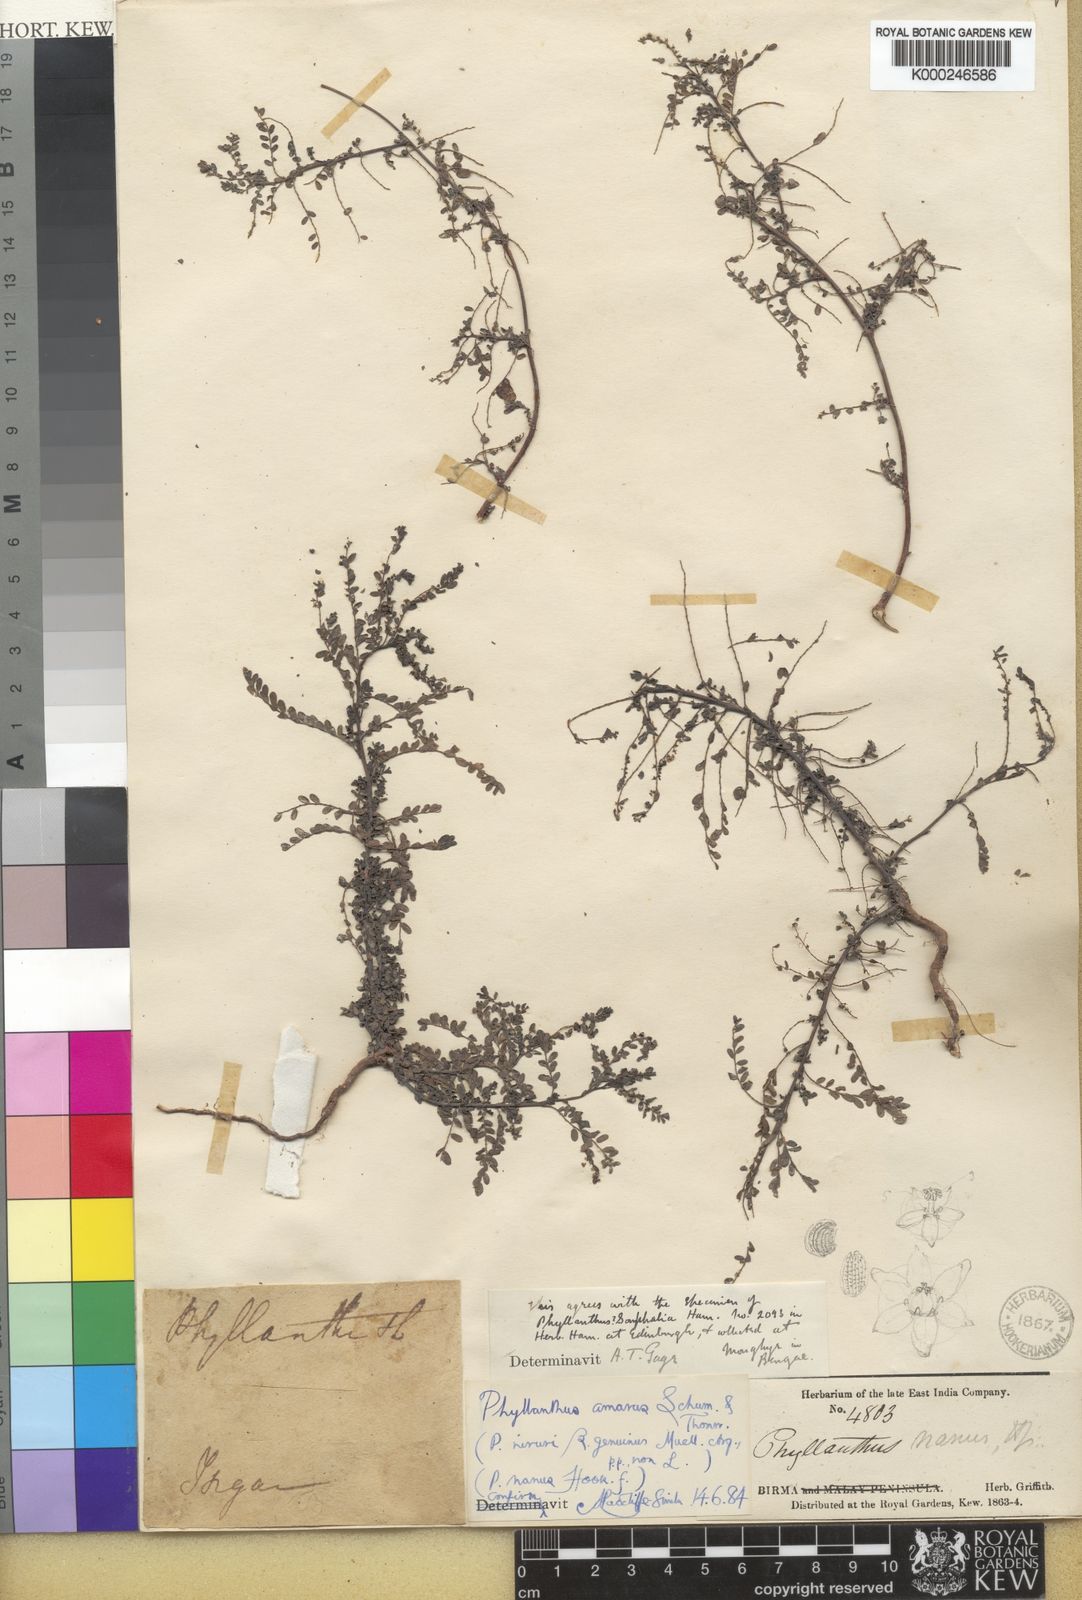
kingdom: Plantae
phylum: Tracheophyta
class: Magnoliopsida
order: Malpighiales
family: Phyllanthaceae
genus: Phyllanthus
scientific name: Phyllanthus fraternus
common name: Gulf leaf-flower
